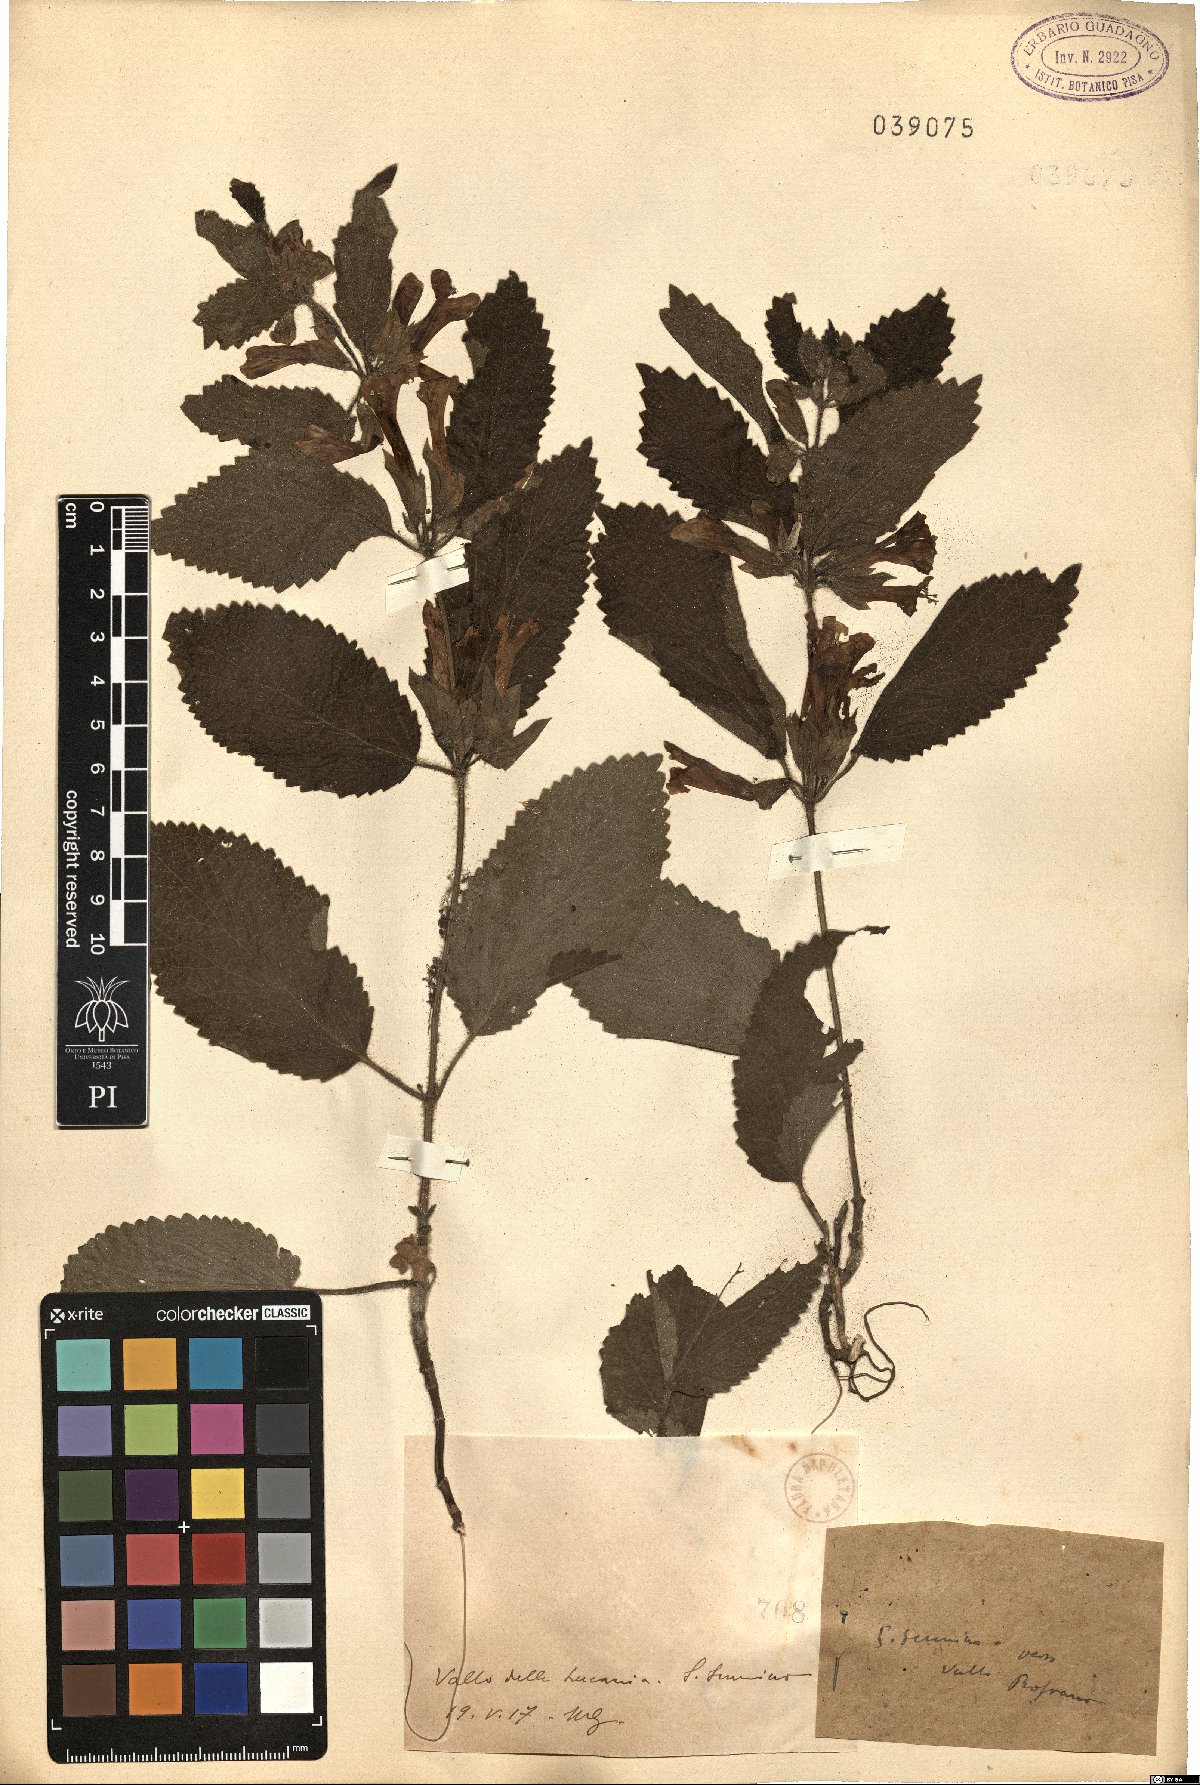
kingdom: Plantae
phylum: Tracheophyta
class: Magnoliopsida
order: Lamiales
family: Lamiaceae
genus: Melittis
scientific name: Melittis
